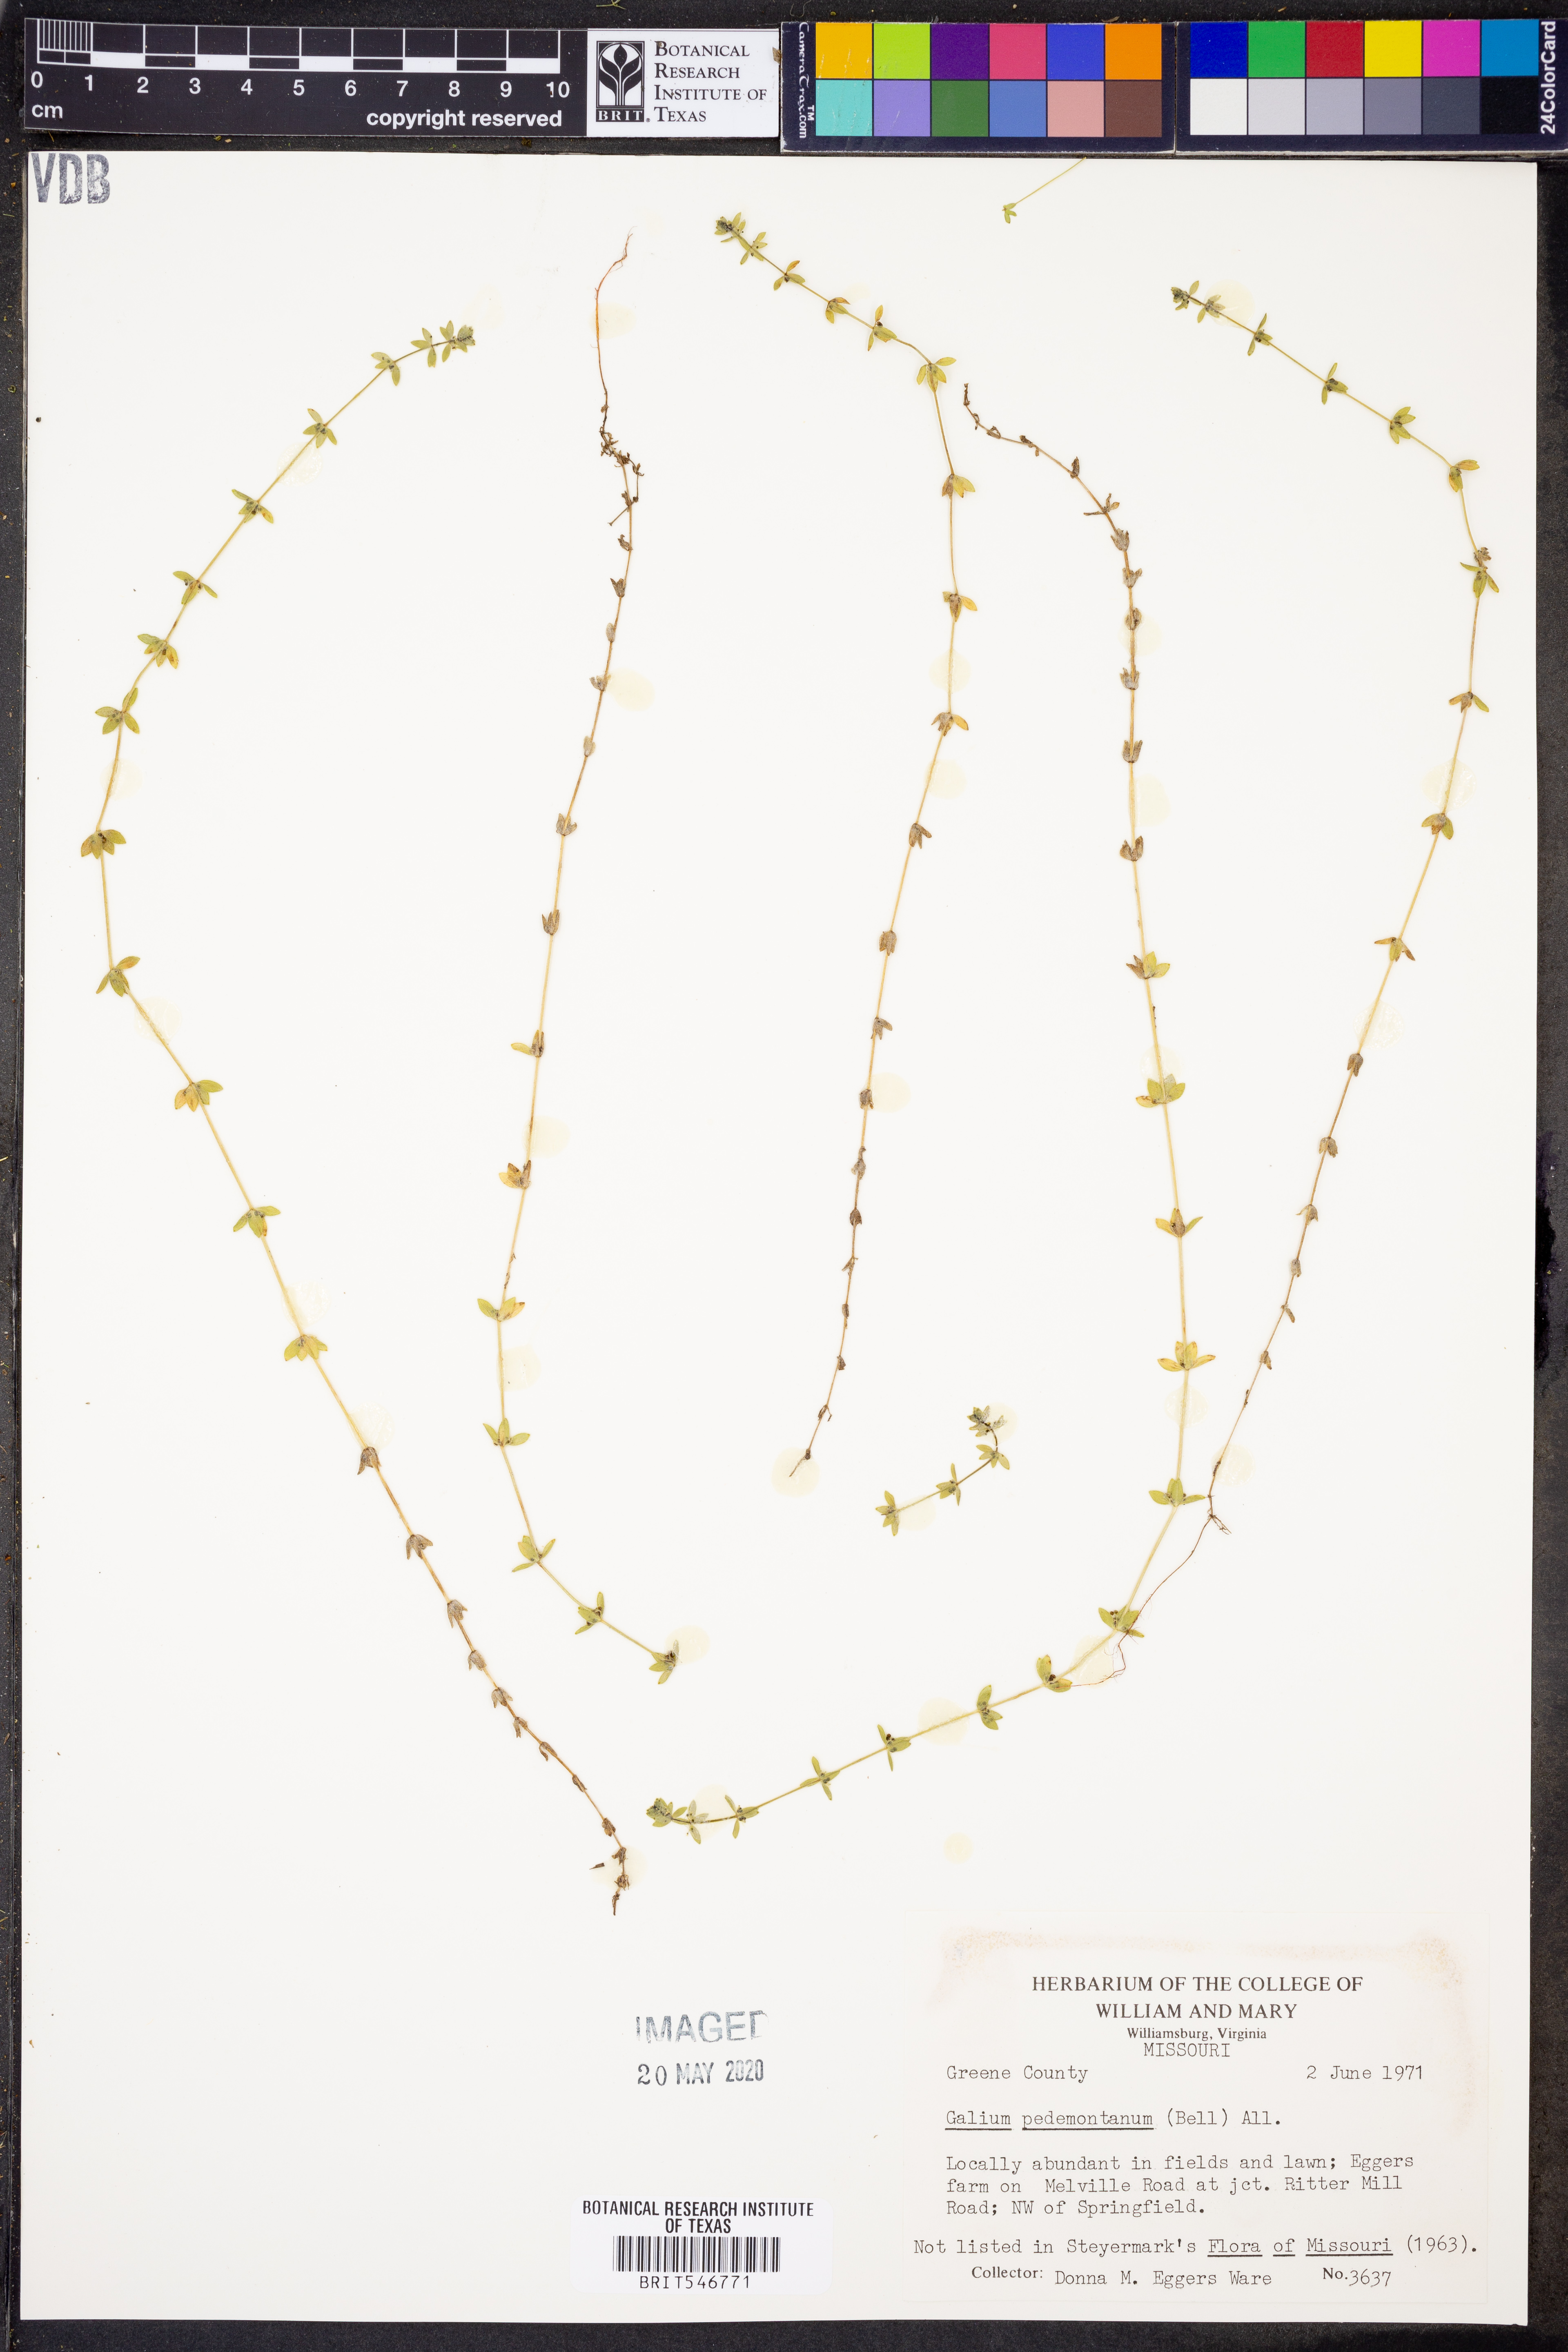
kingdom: Plantae
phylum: Tracheophyta
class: Magnoliopsida
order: Gentianales
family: Rubiaceae
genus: Cruciata
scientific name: Cruciata pedemontana
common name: Piedmont bedstraw
